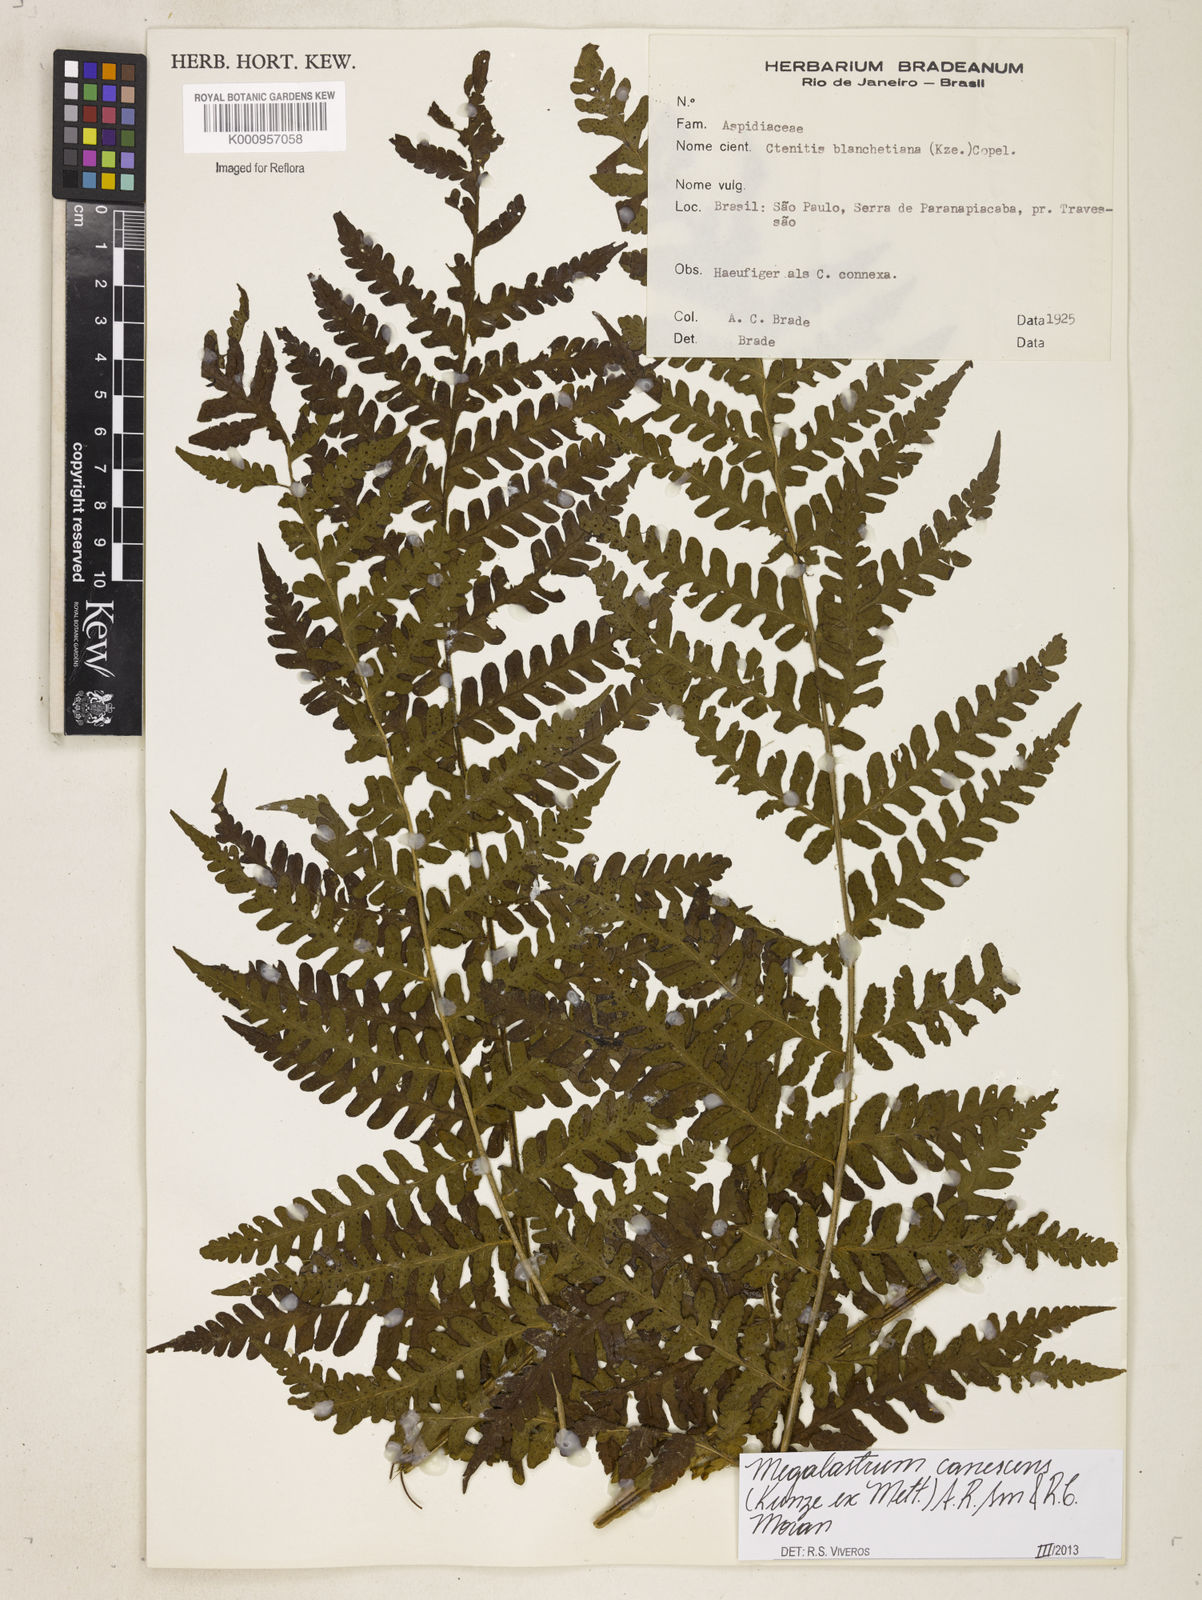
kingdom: Plantae
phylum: Tracheophyta
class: Polypodiopsida
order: Polypodiales
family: Dryopteridaceae
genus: Megalastrum
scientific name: Megalastrum canescens
